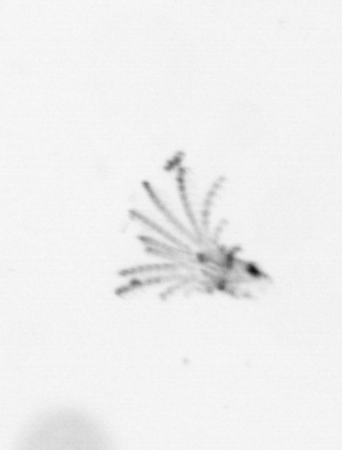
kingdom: Animalia
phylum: Arthropoda
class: Maxillopoda
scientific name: Maxillopoda
